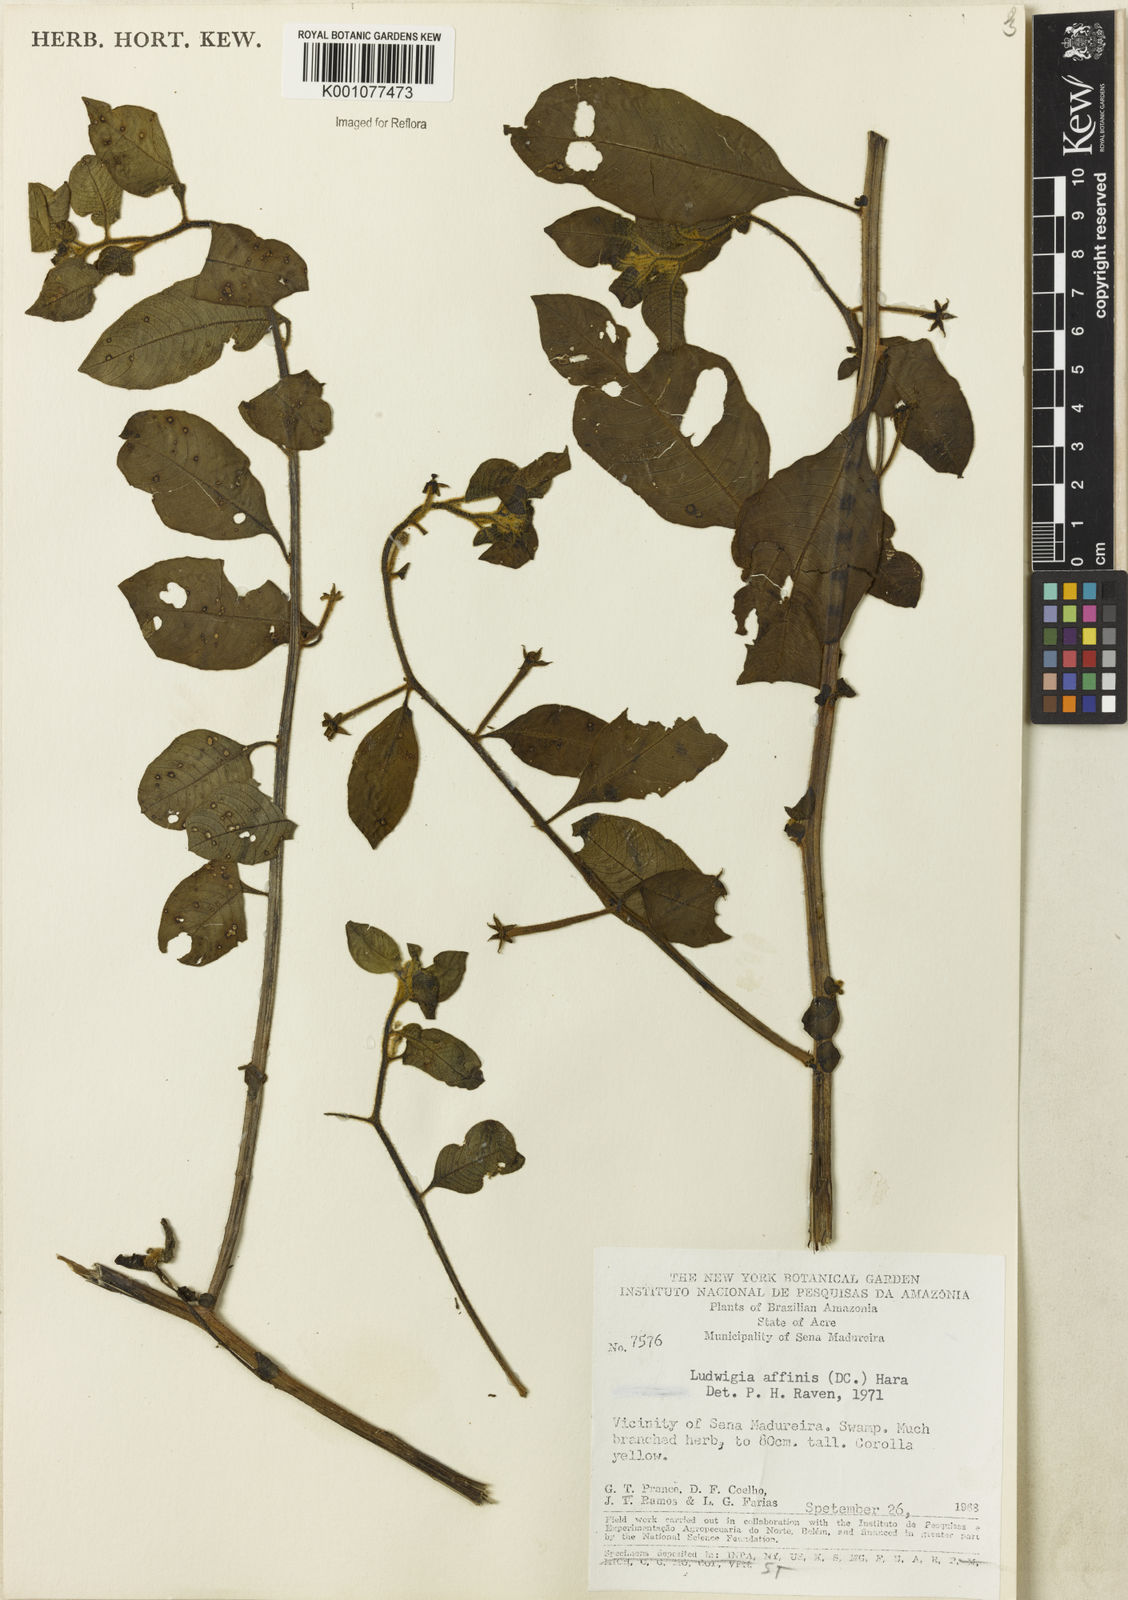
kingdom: Plantae
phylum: Tracheophyta
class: Magnoliopsida
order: Myrtales
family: Onagraceae
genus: Ludwigia
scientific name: Ludwigia affinis
